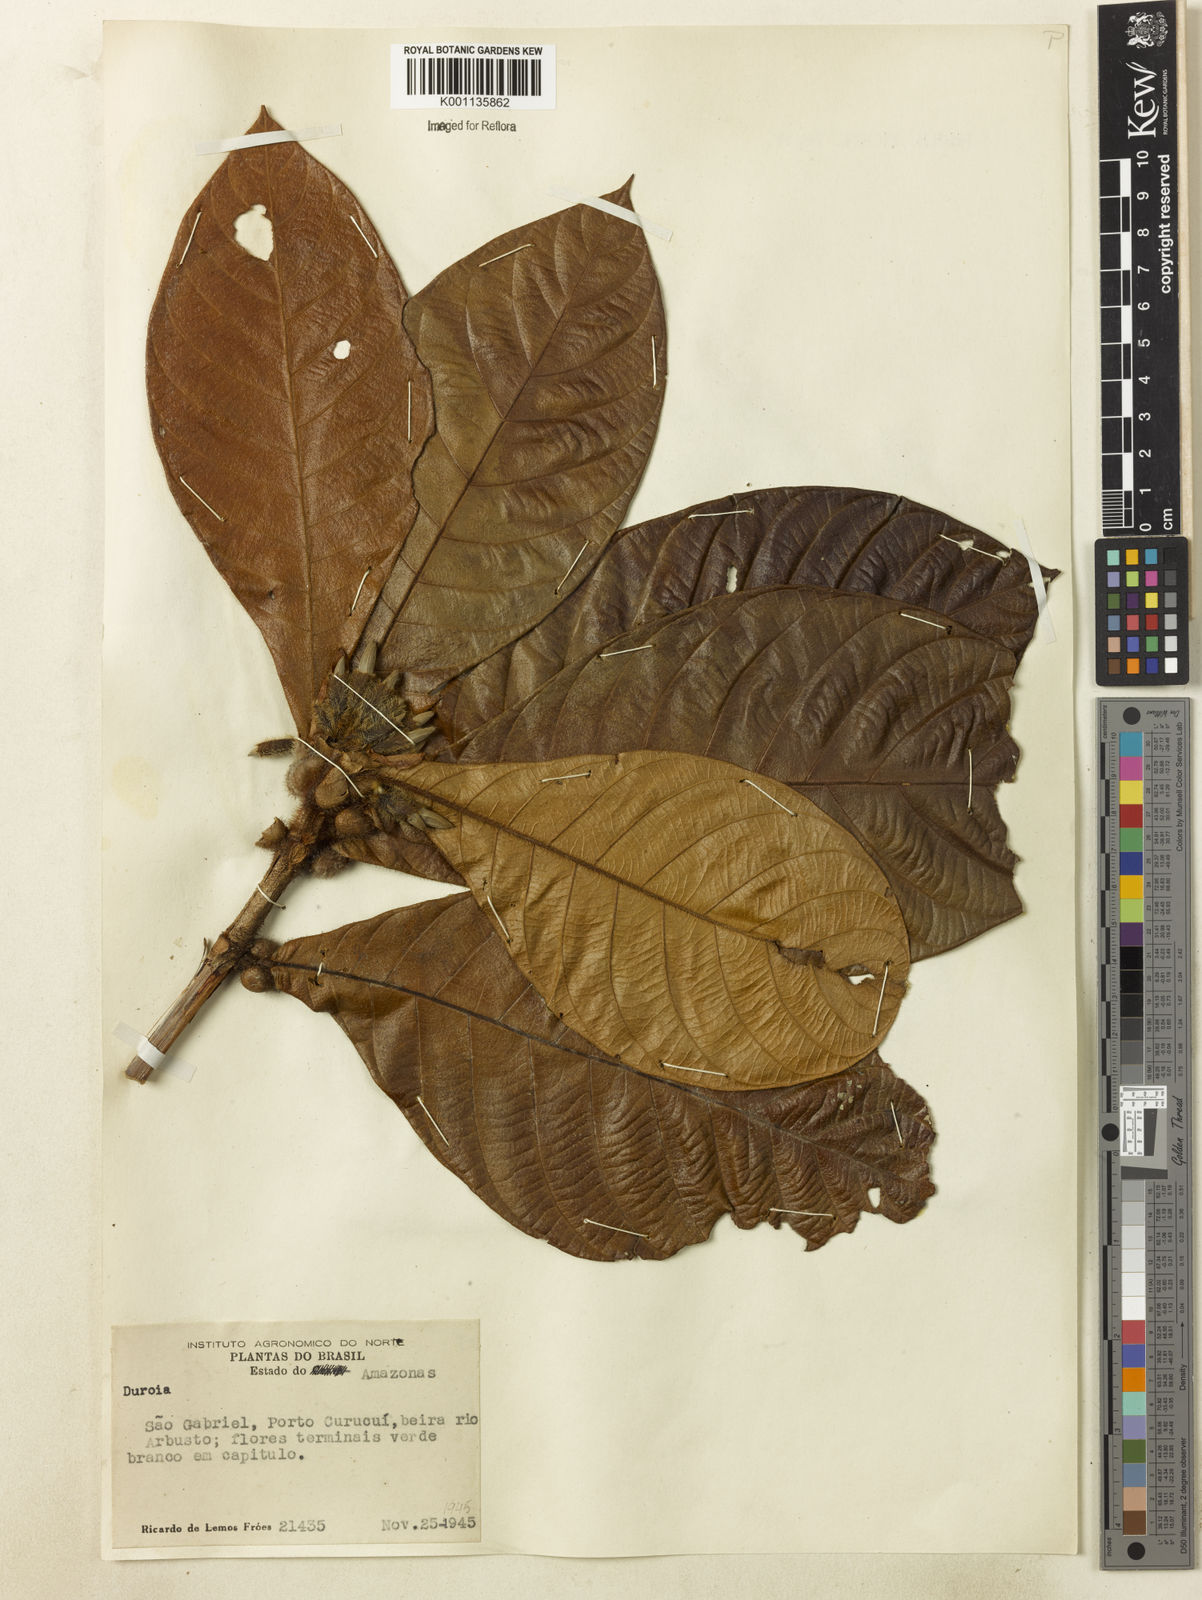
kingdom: Plantae
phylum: Tracheophyta
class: Magnoliopsida
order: Gentianales
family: Rubiaceae
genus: Duroia
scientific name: Duroia
